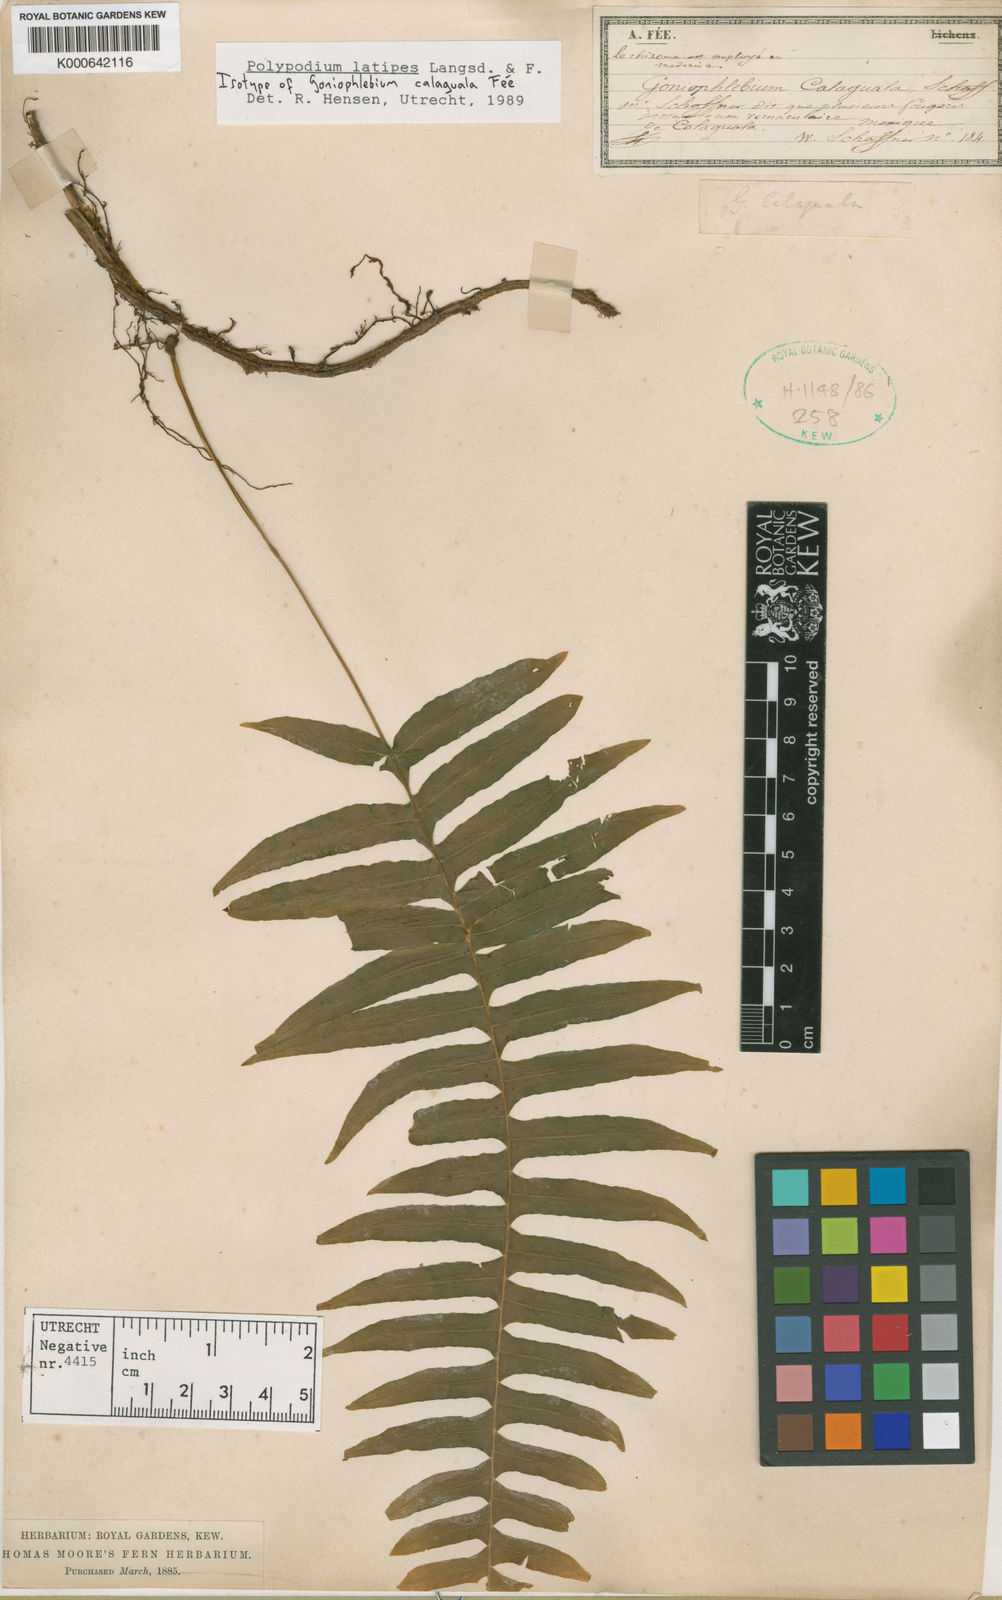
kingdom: Plantae
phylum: Tracheophyta
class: Polypodiopsida
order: Polypodiales
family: Polypodiaceae
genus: Serpocaulon
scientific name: Serpocaulon latipes
